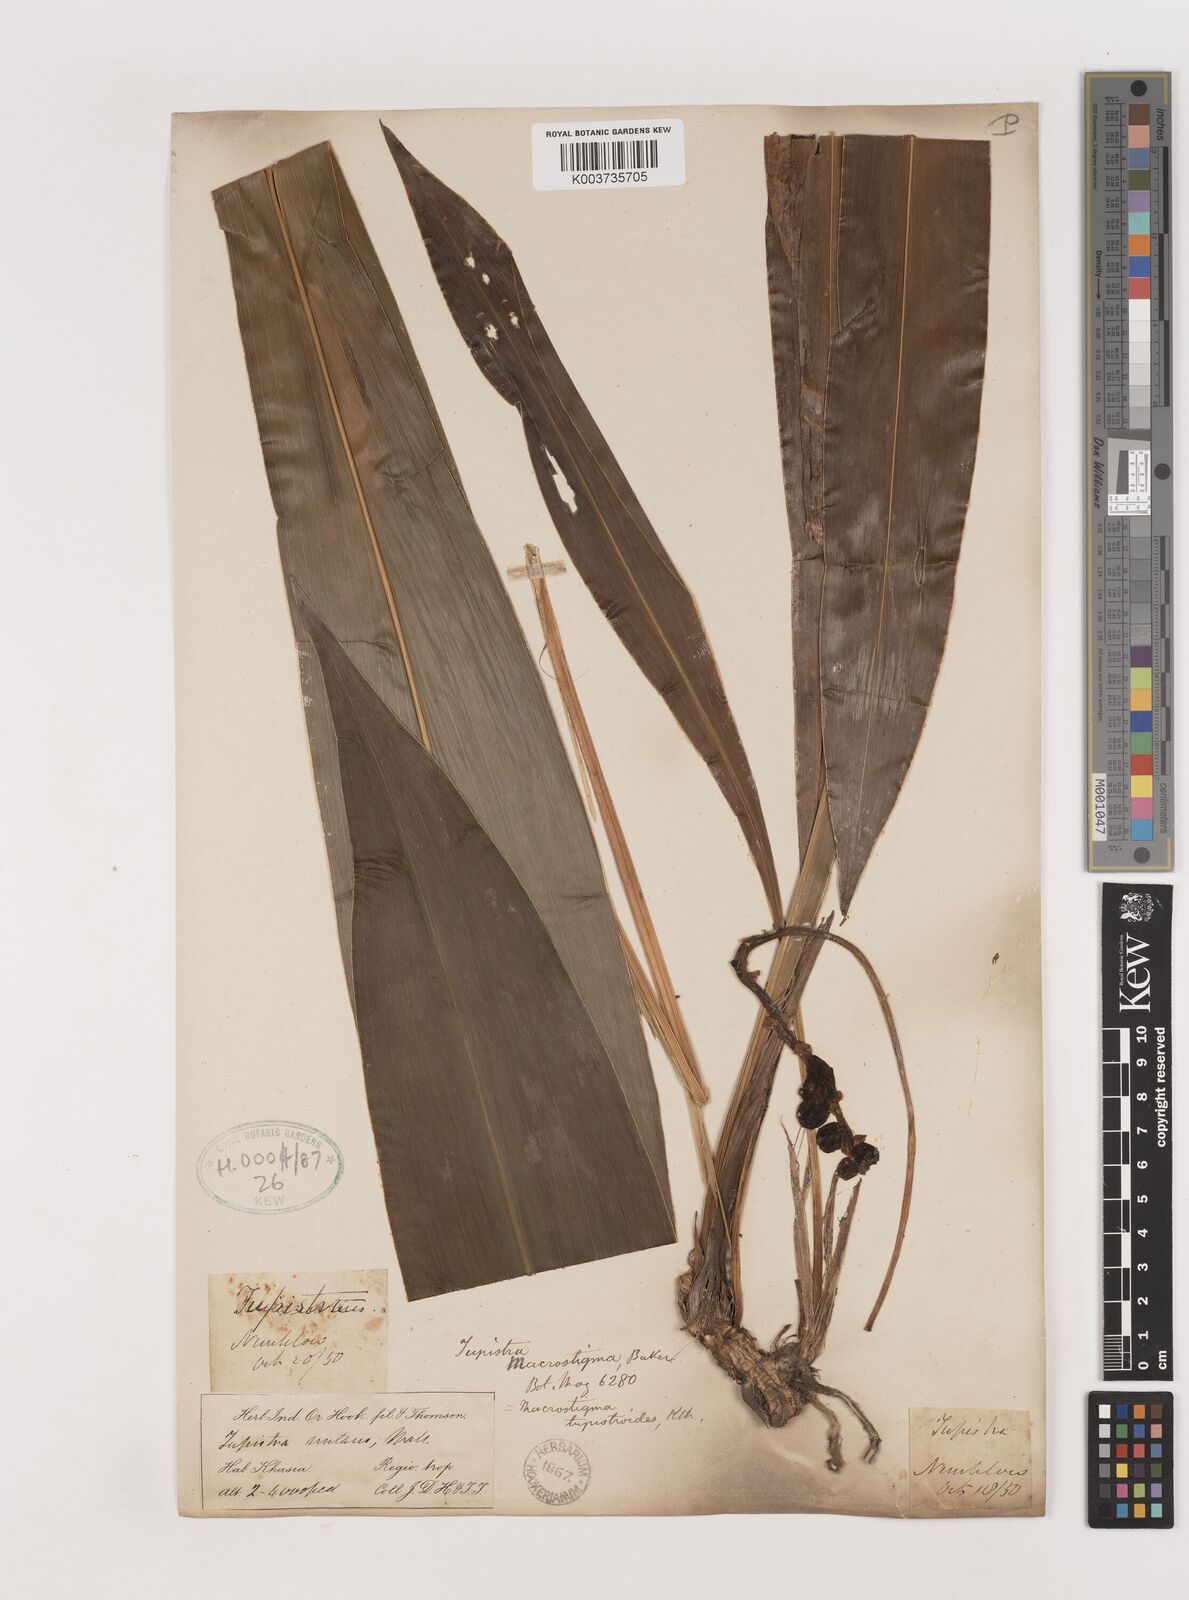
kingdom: Plantae
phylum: Tracheophyta
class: Liliopsida
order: Asparagales
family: Asparagaceae
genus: Tupistra
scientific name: Tupistra tupistroides
